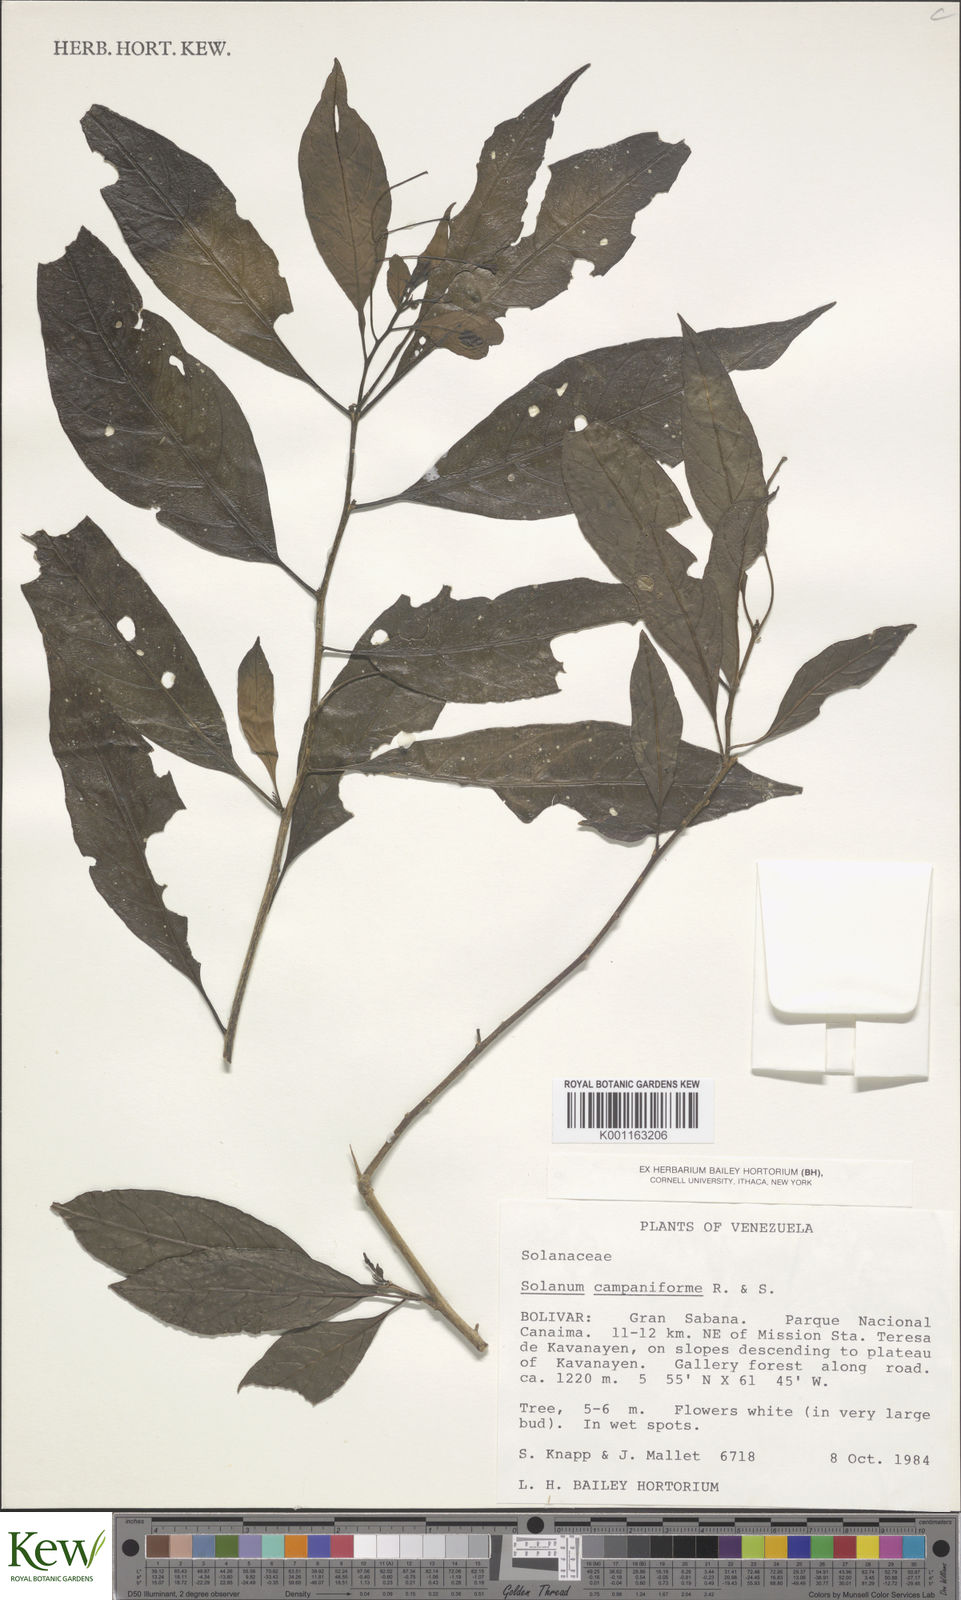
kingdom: Plantae
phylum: Tracheophyta
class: Magnoliopsida
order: Solanales
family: Solanaceae
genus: Solanum
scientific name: Solanum campaniforme
